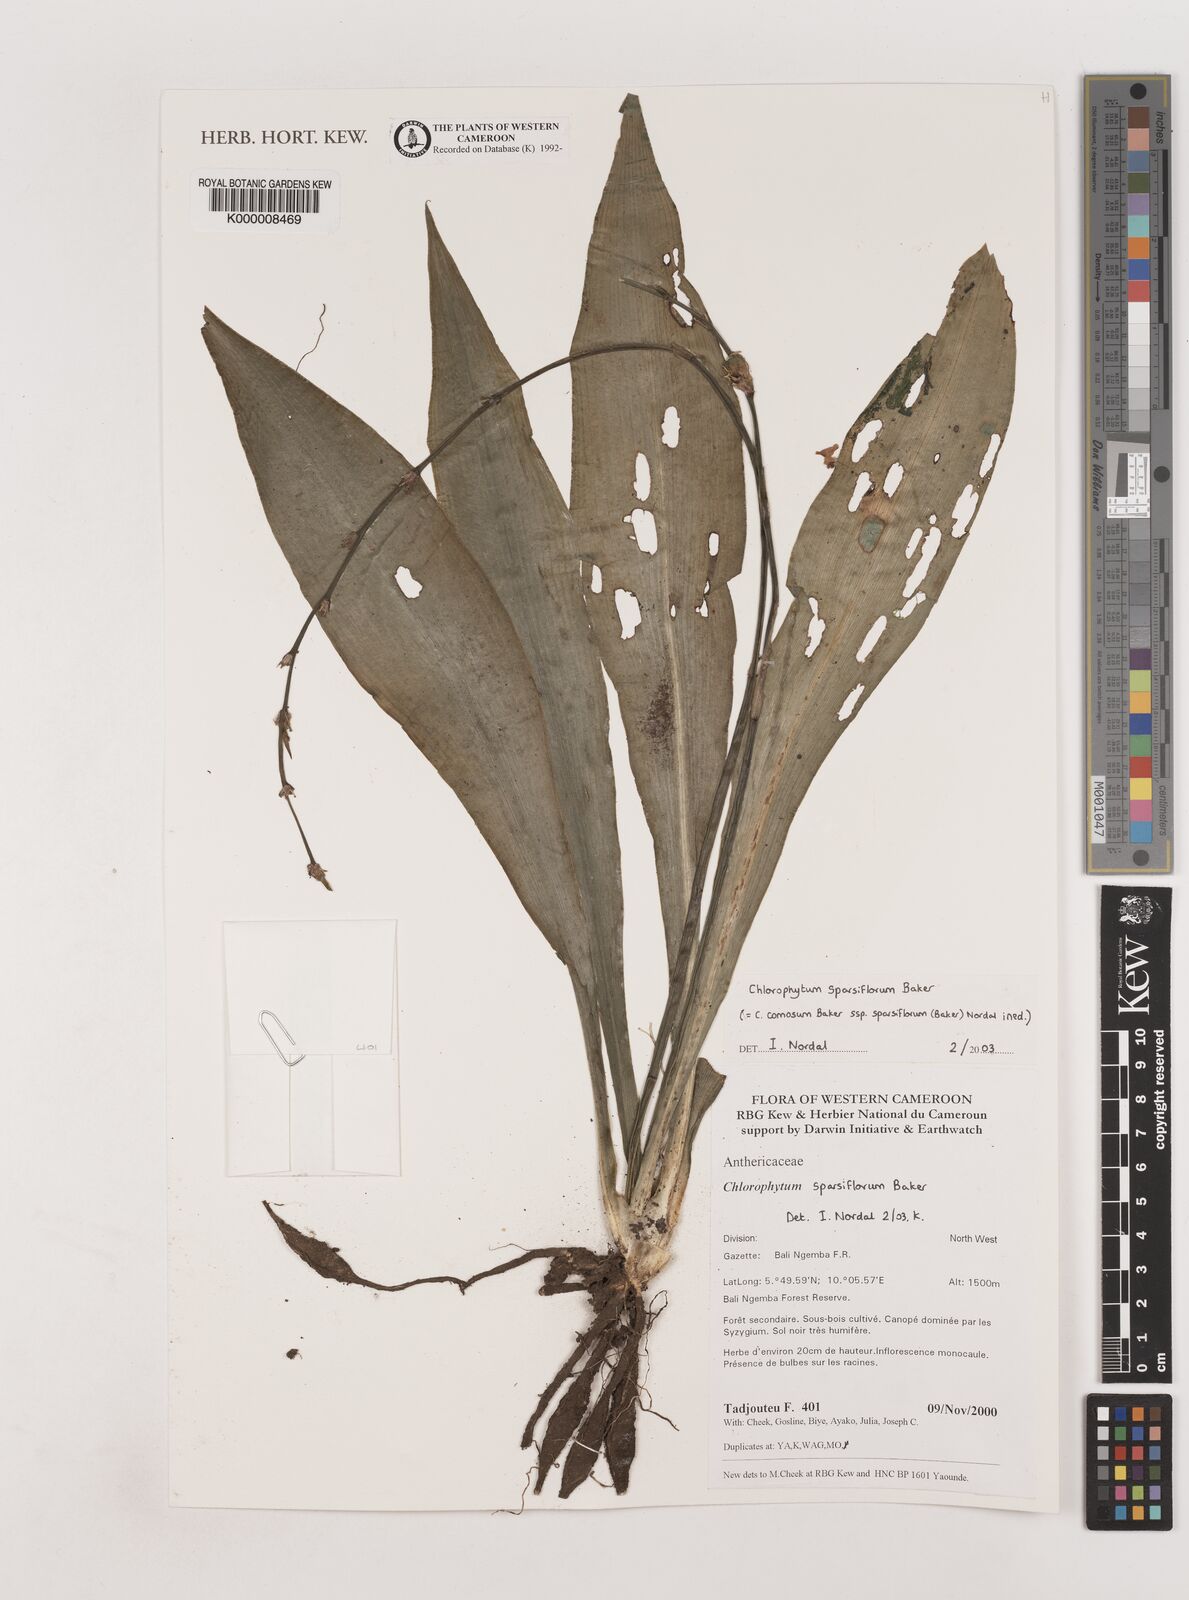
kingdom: Plantae
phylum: Tracheophyta
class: Liliopsida
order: Asparagales
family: Asparagaceae
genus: Chlorophytum
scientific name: Chlorophytum sparsiflorum
